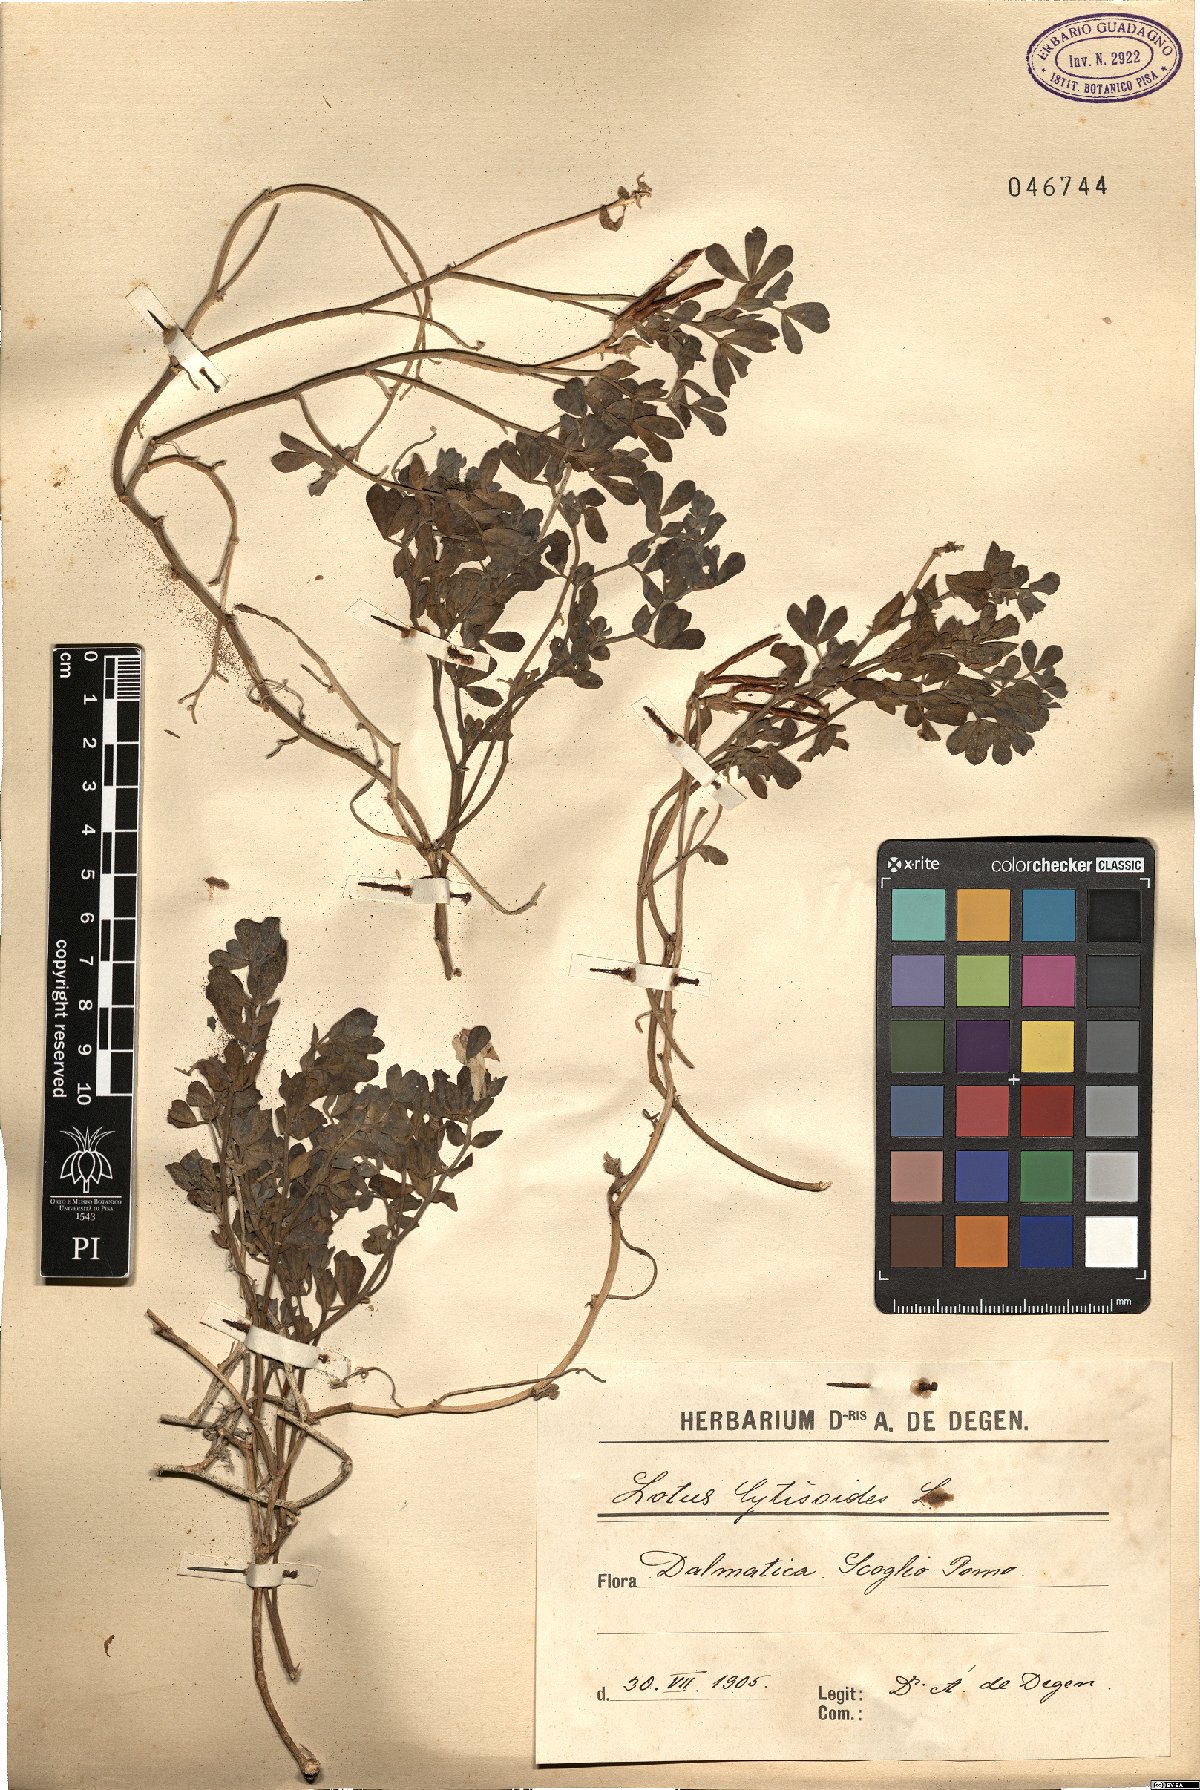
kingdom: Plantae
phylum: Tracheophyta
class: Magnoliopsida
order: Fabales
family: Fabaceae
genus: Lotus
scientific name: Lotus cytisoides
